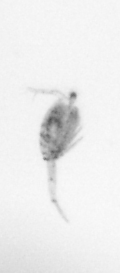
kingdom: Animalia
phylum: Arthropoda
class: Copepoda
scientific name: Copepoda
